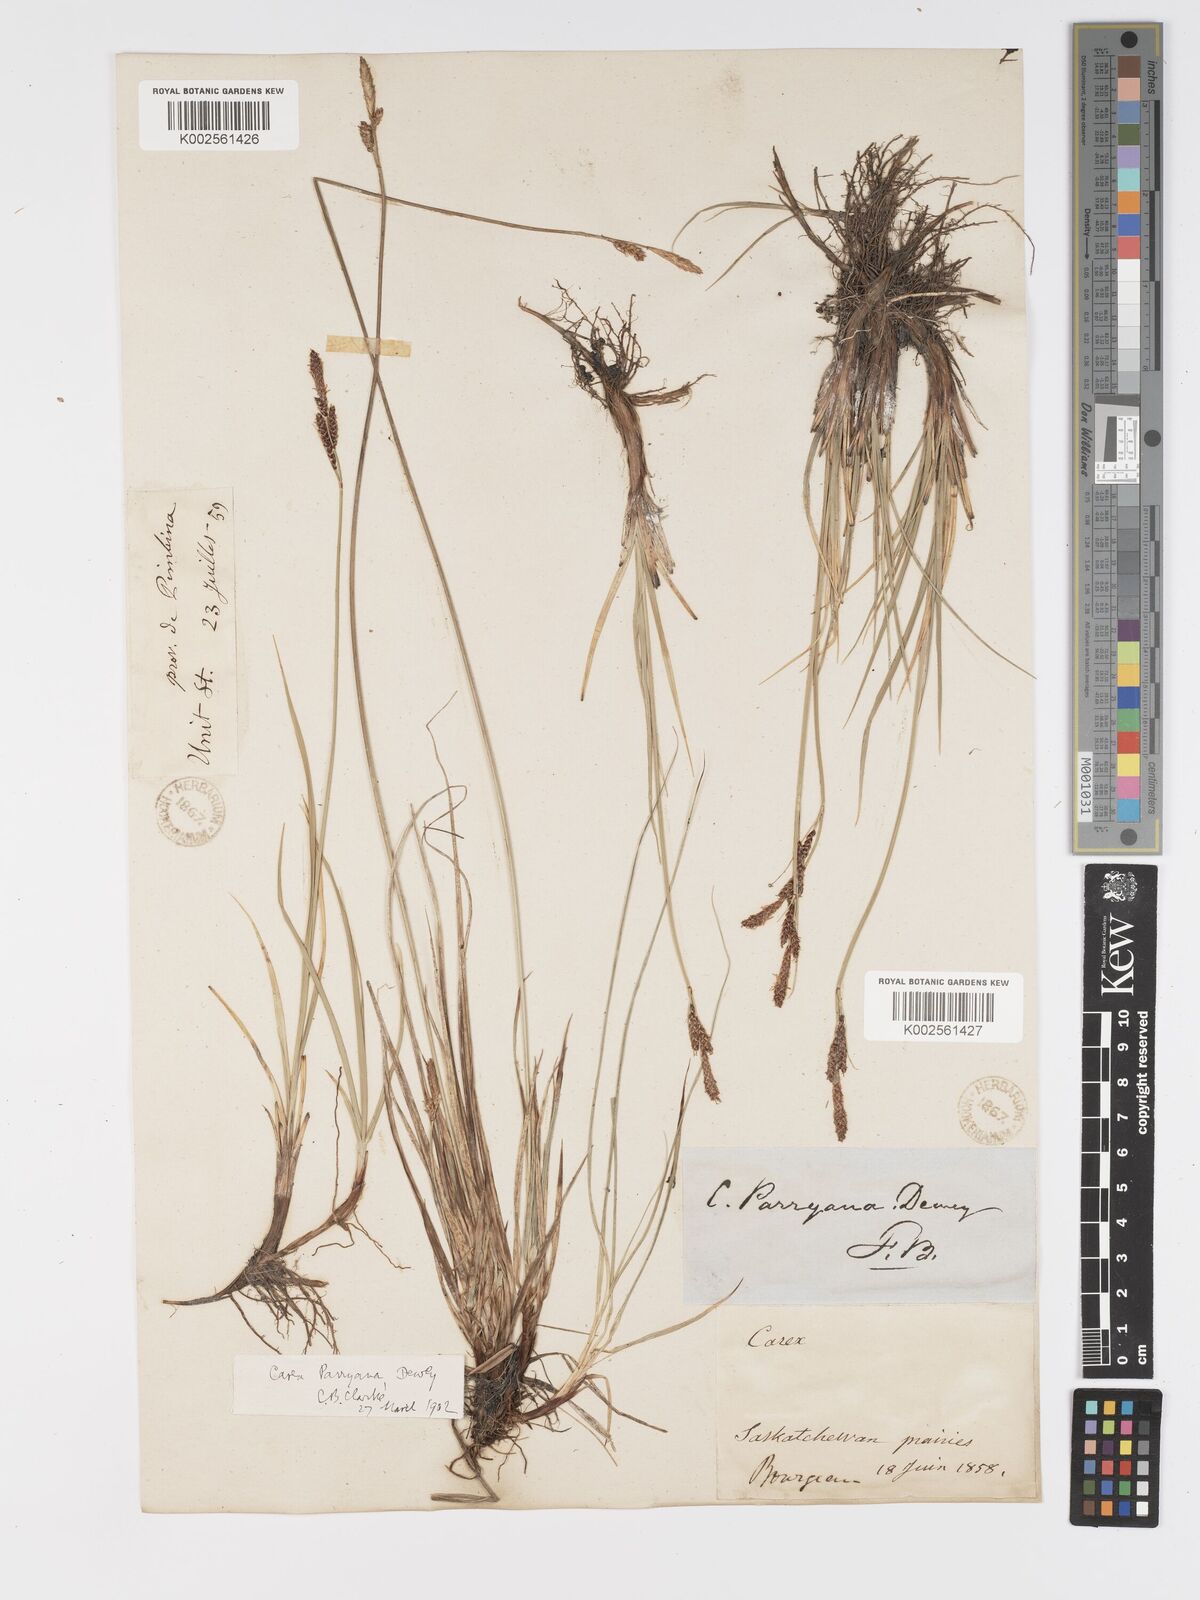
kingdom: Plantae
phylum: Tracheophyta
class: Liliopsida
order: Poales
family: Cyperaceae
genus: Carex
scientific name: Carex parryana
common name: Parry's sedge
